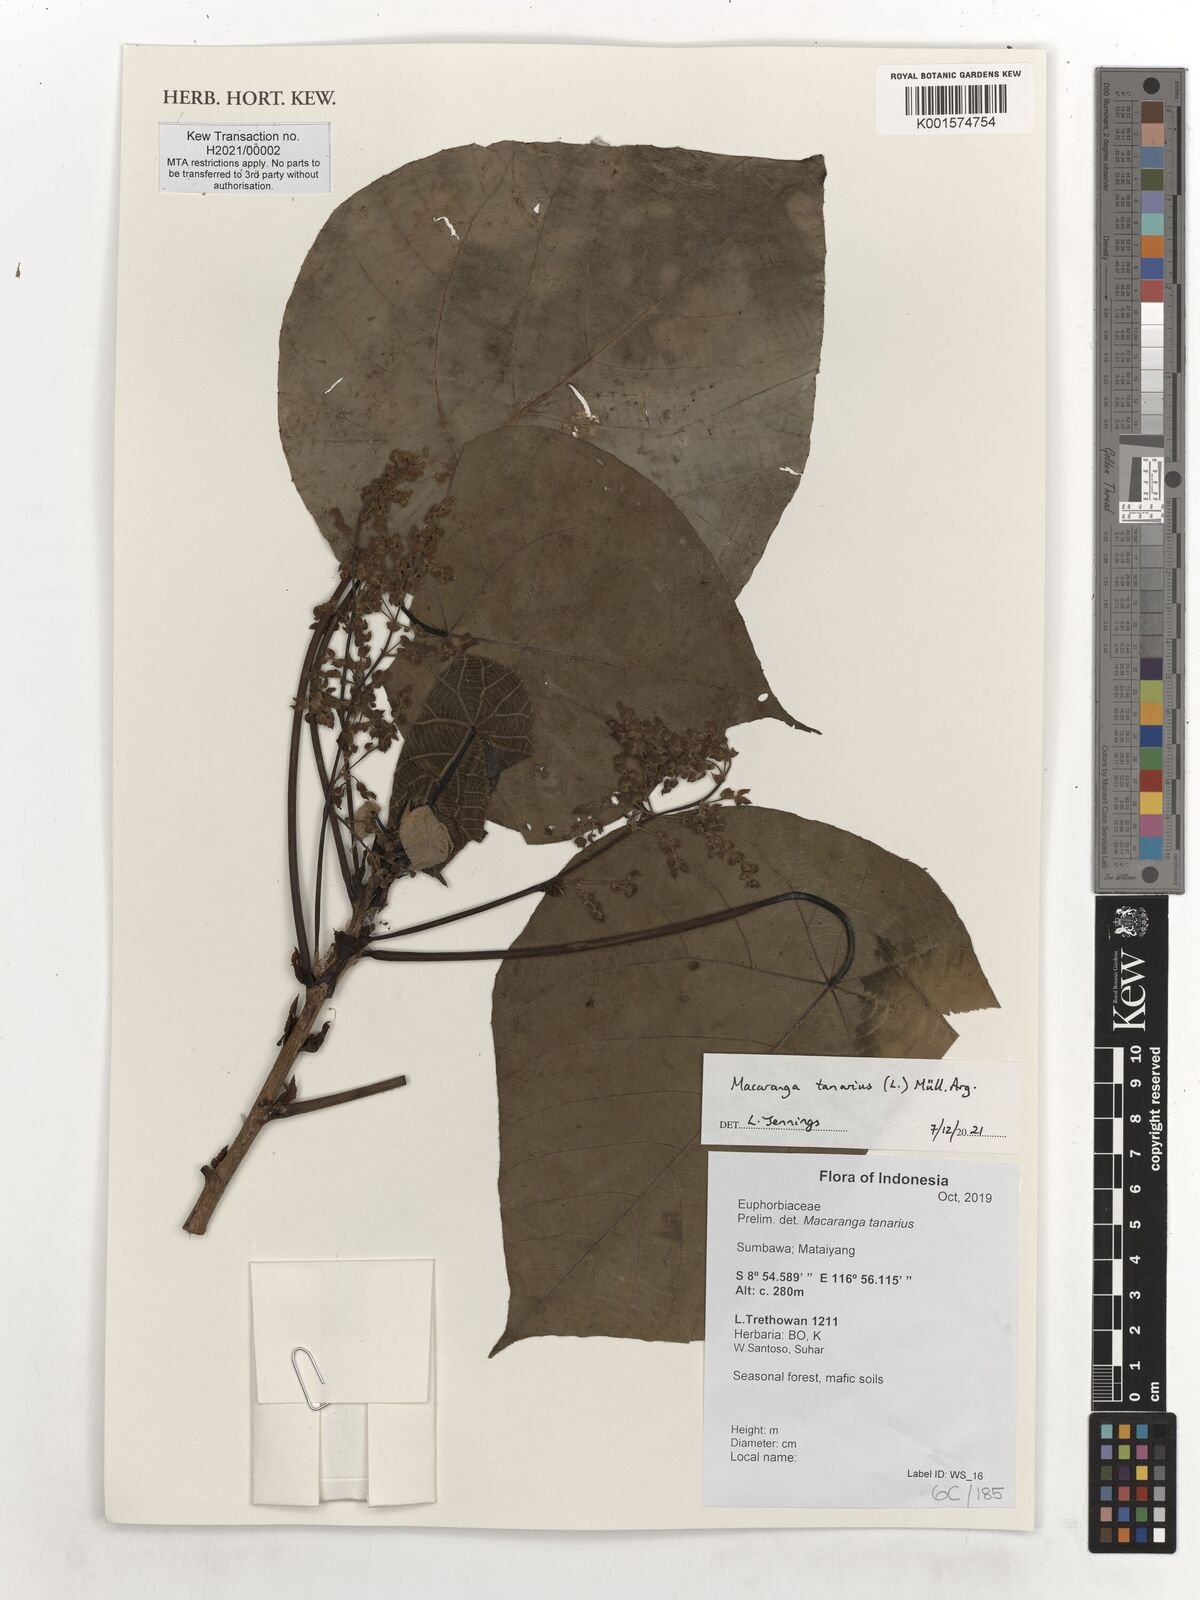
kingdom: Plantae
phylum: Tracheophyta
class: Magnoliopsida
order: Malpighiales
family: Euphorbiaceae
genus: Macaranga
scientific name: Macaranga tanarius
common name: Parasol leaf tree
